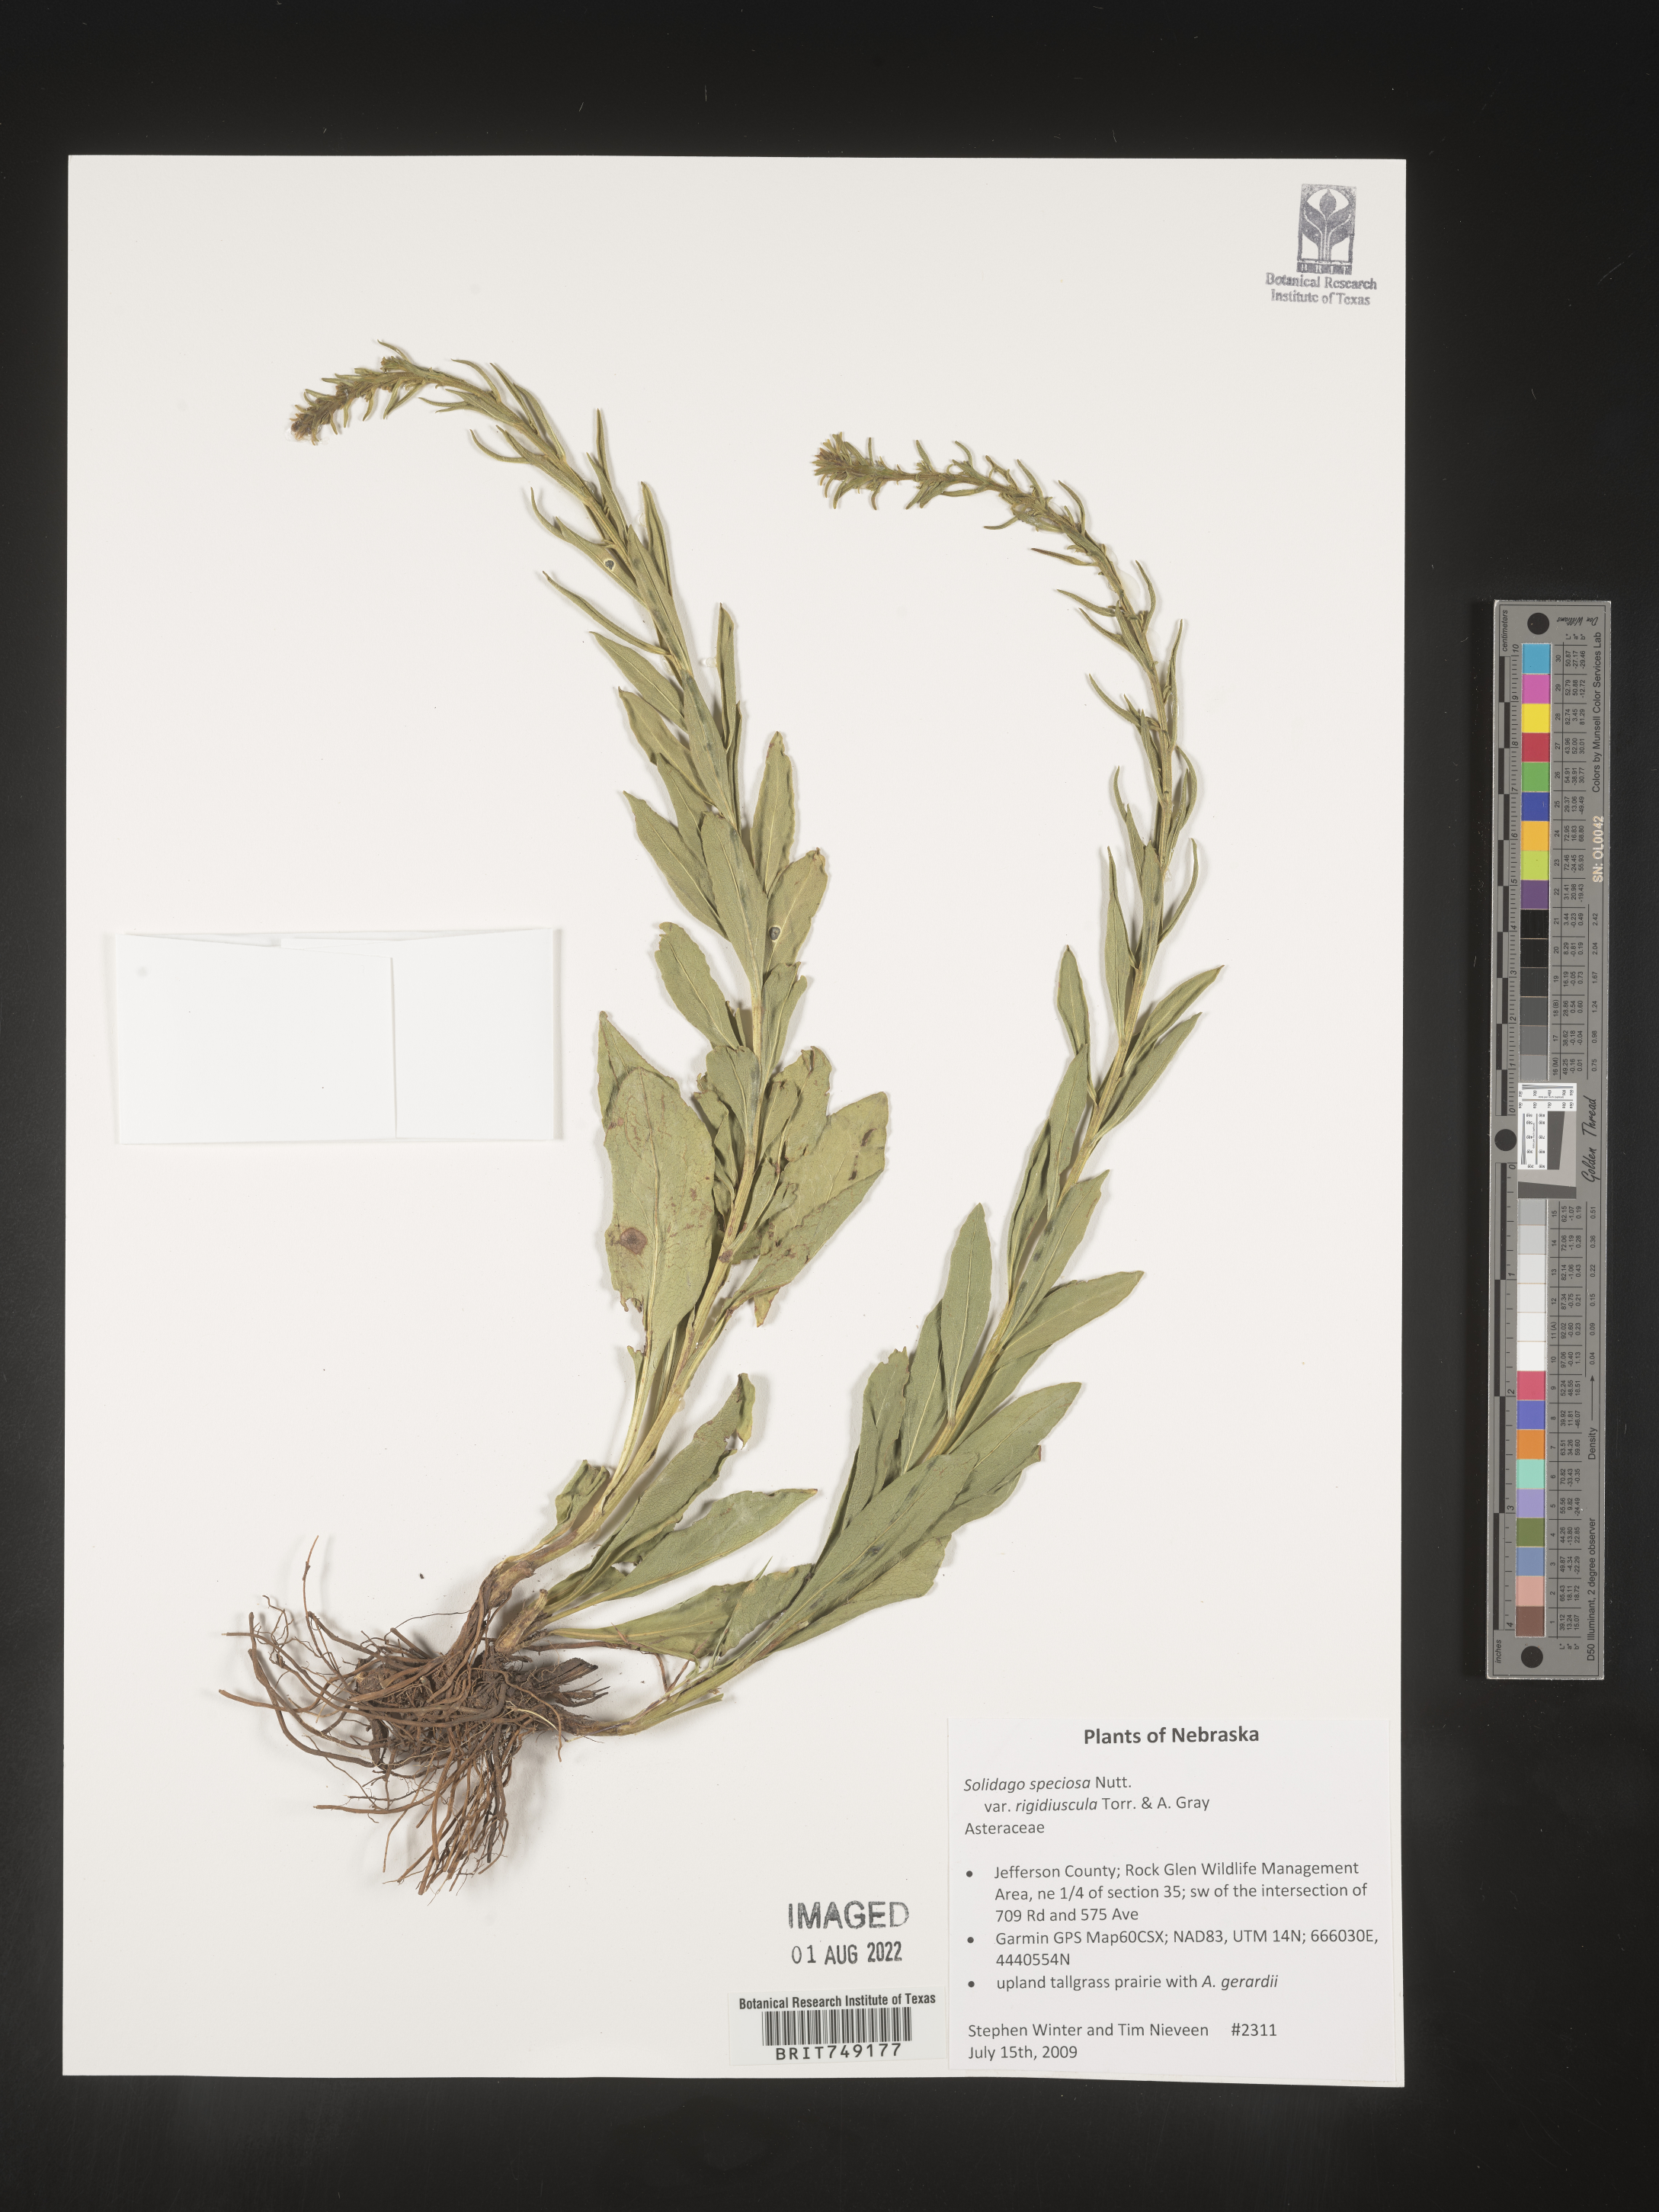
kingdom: Plantae
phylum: Tracheophyta
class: Magnoliopsida
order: Asterales
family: Asteraceae
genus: Solidago
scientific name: Solidago speciosa
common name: Showy goldenrod
